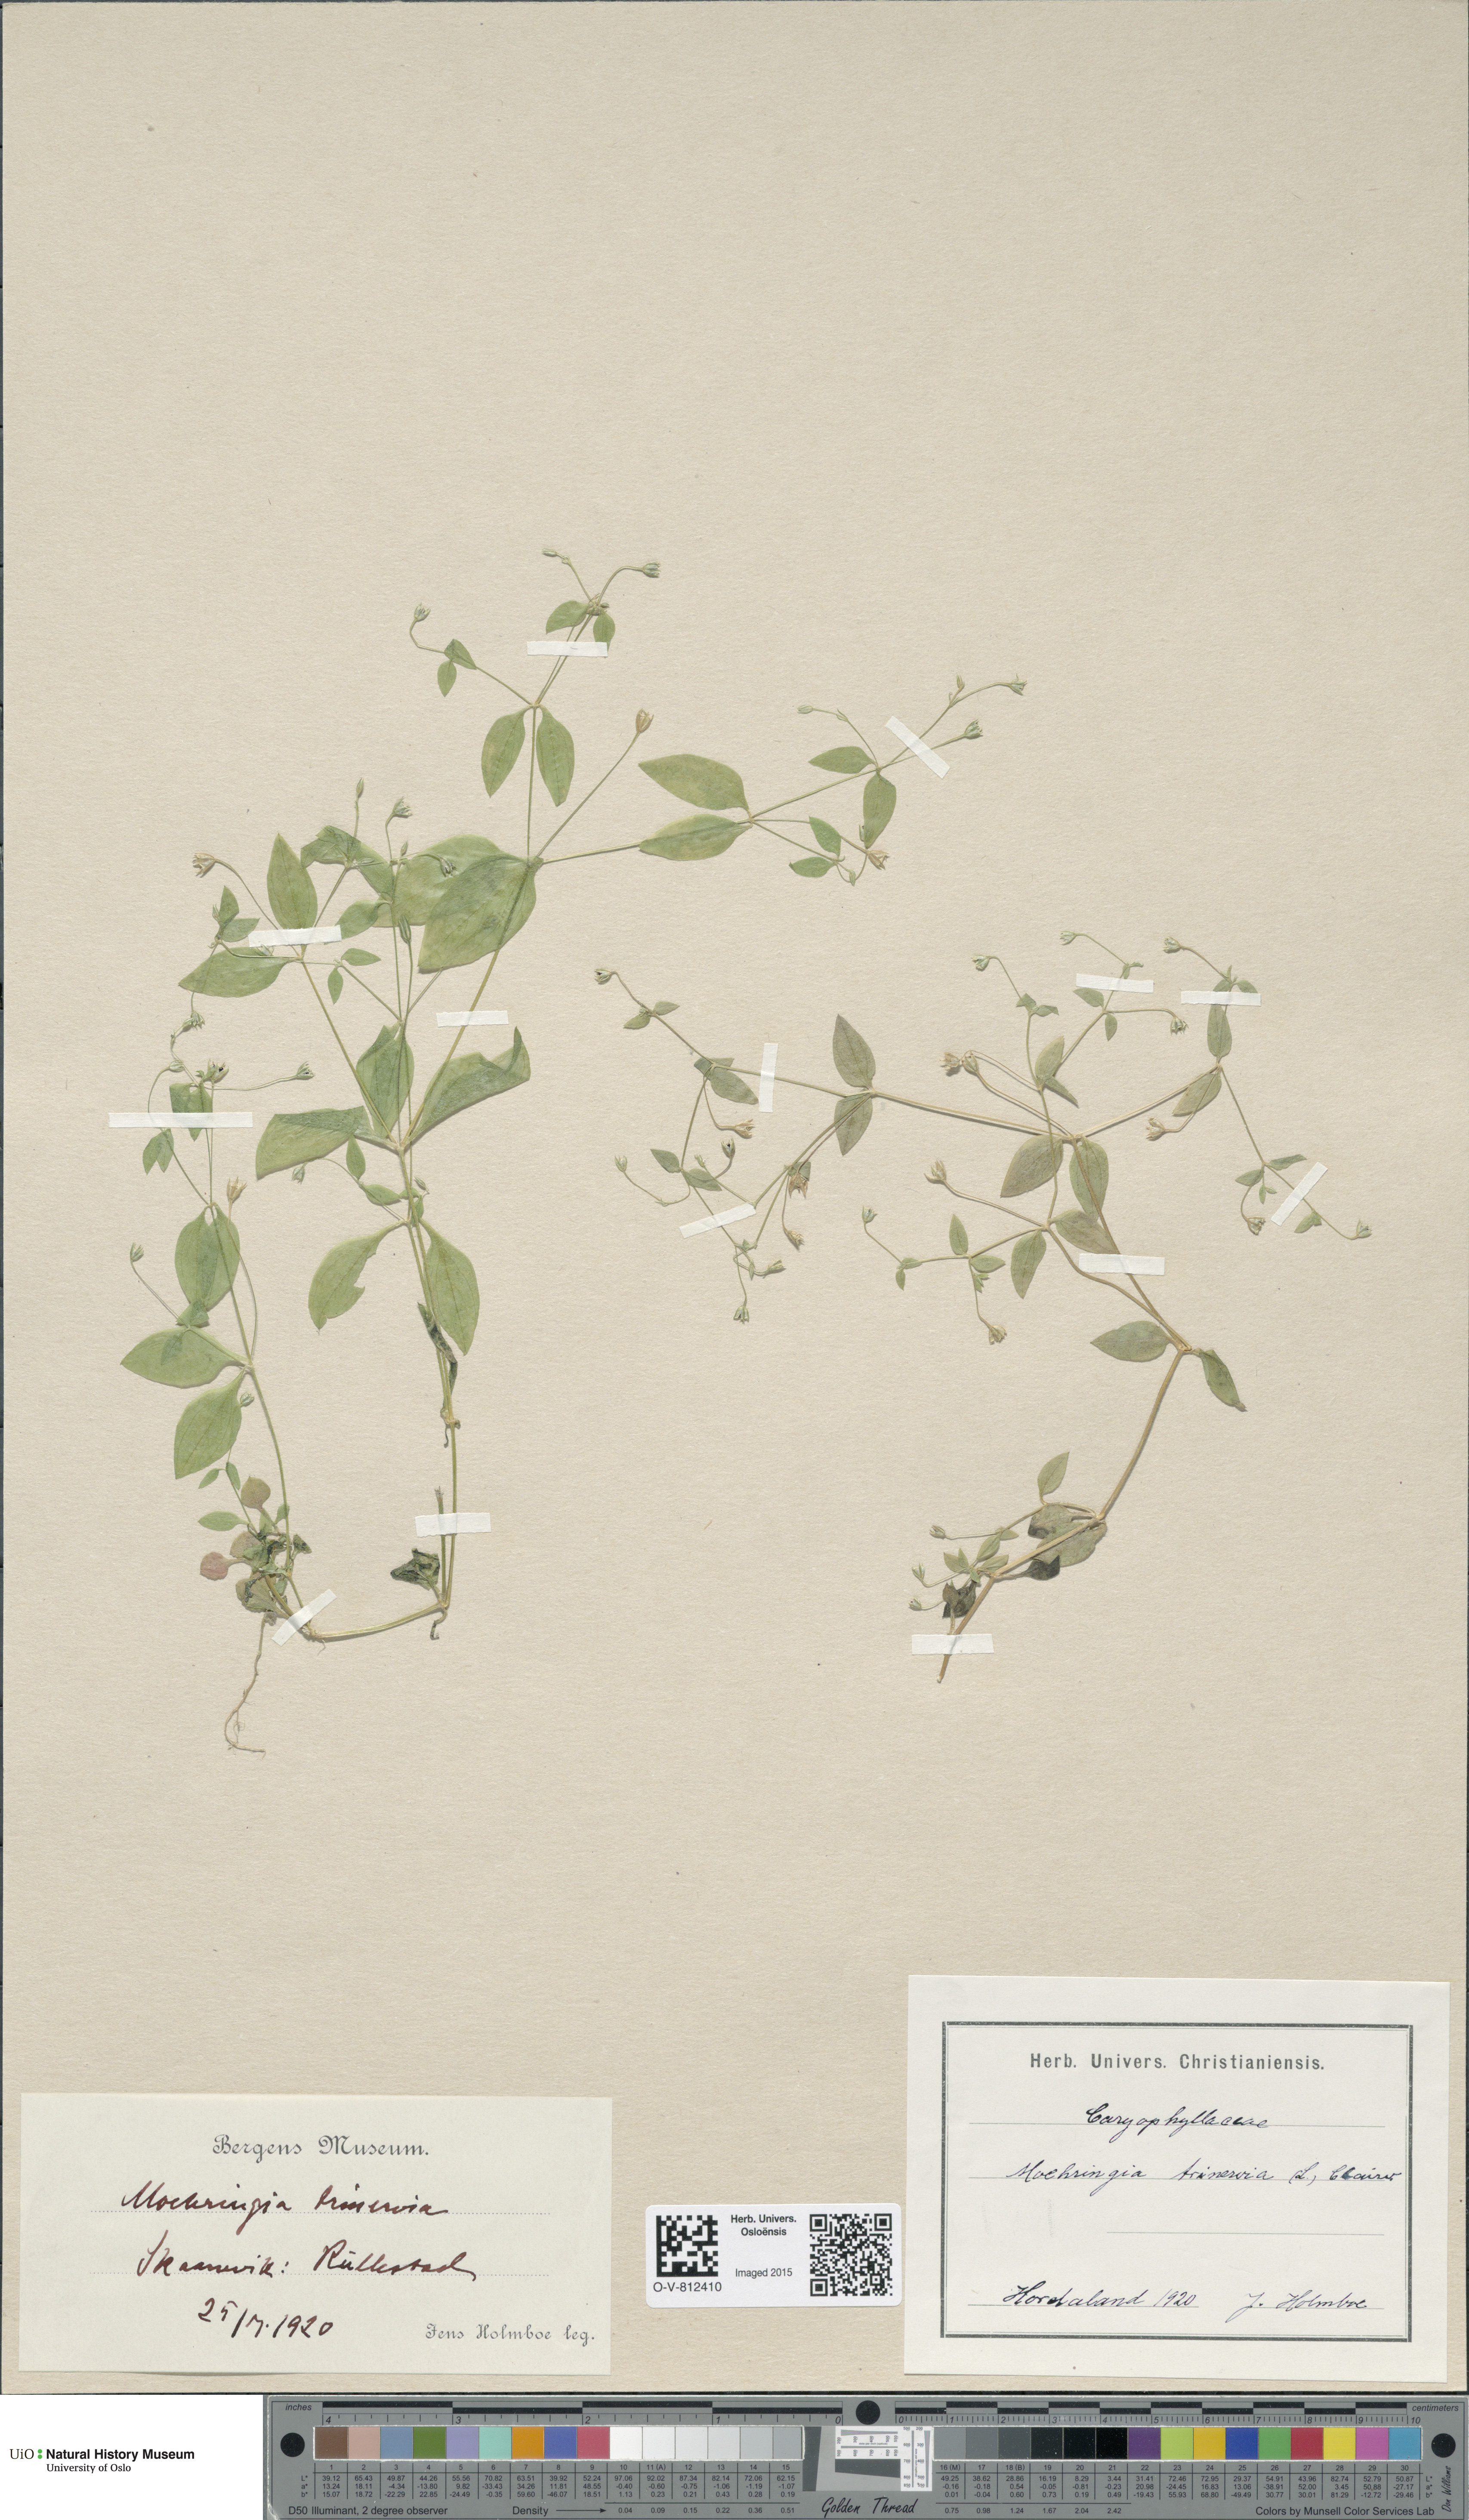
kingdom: Plantae
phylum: Tracheophyta
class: Magnoliopsida
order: Caryophyllales
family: Caryophyllaceae
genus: Moehringia
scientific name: Moehringia trinervia
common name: Three-nerved sandwort
